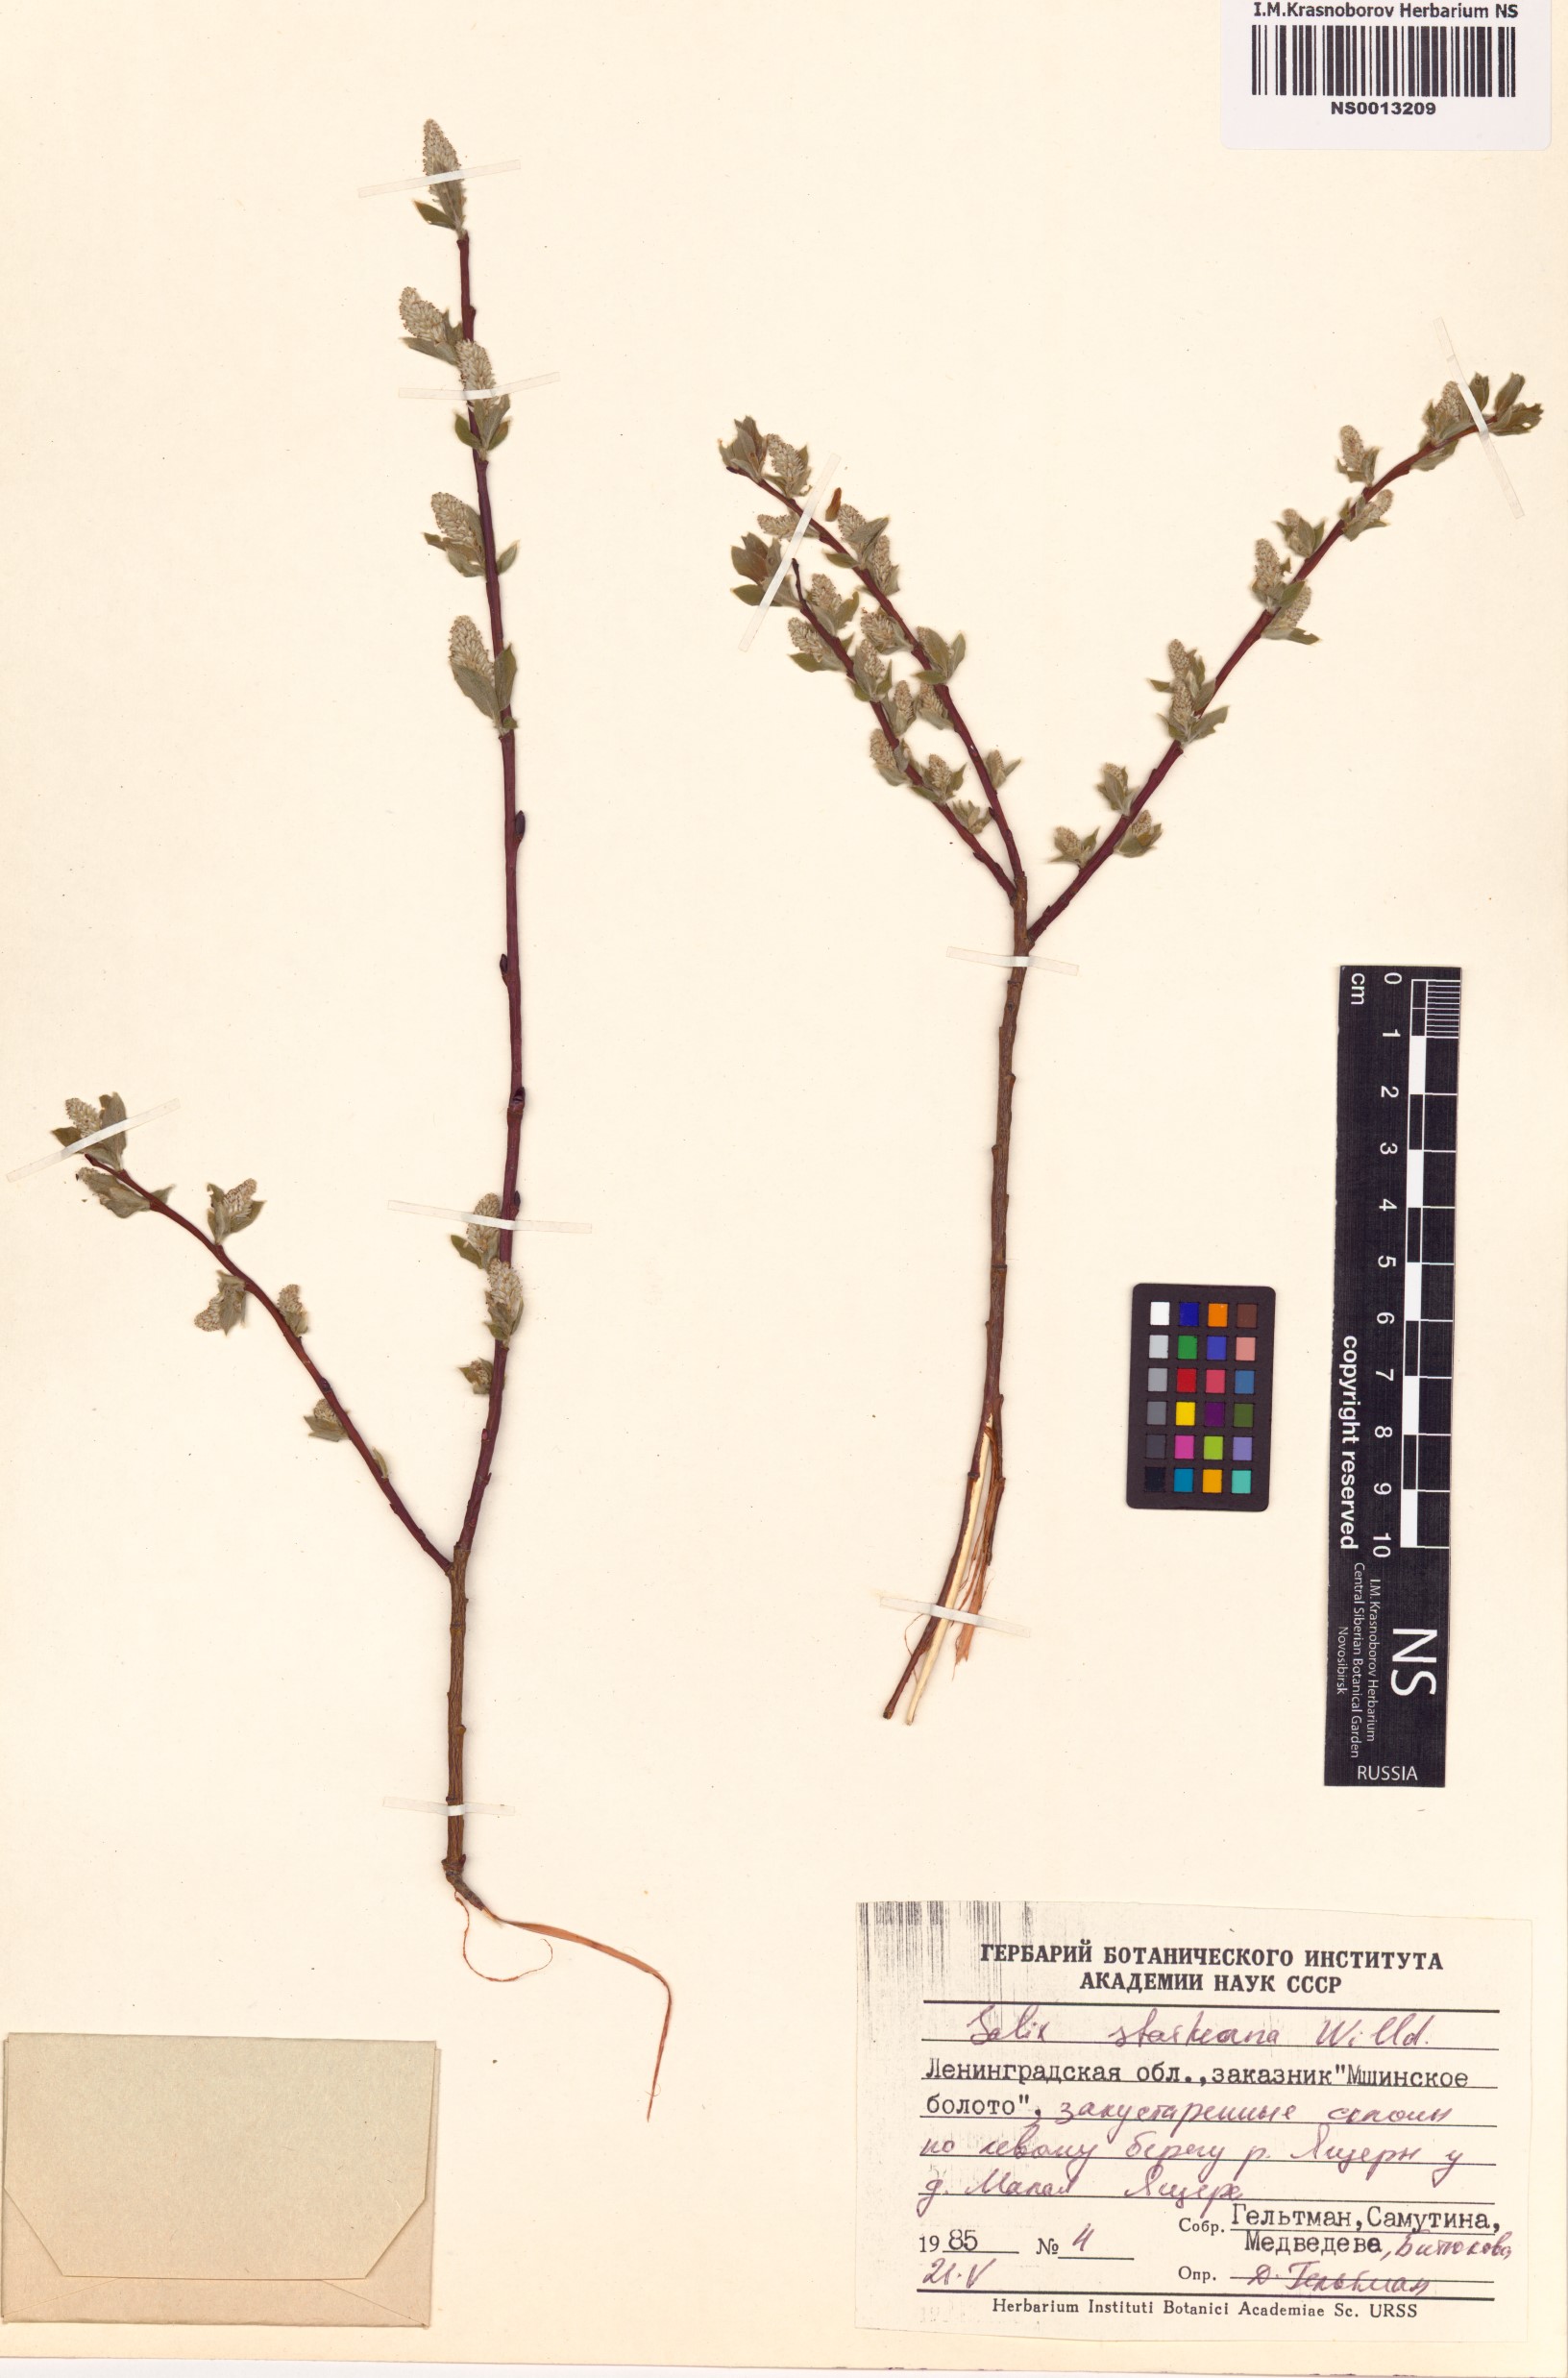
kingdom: Plantae
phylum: Tracheophyta
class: Magnoliopsida
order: Malpighiales
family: Salicaceae
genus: Salix
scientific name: Salix starkeana
